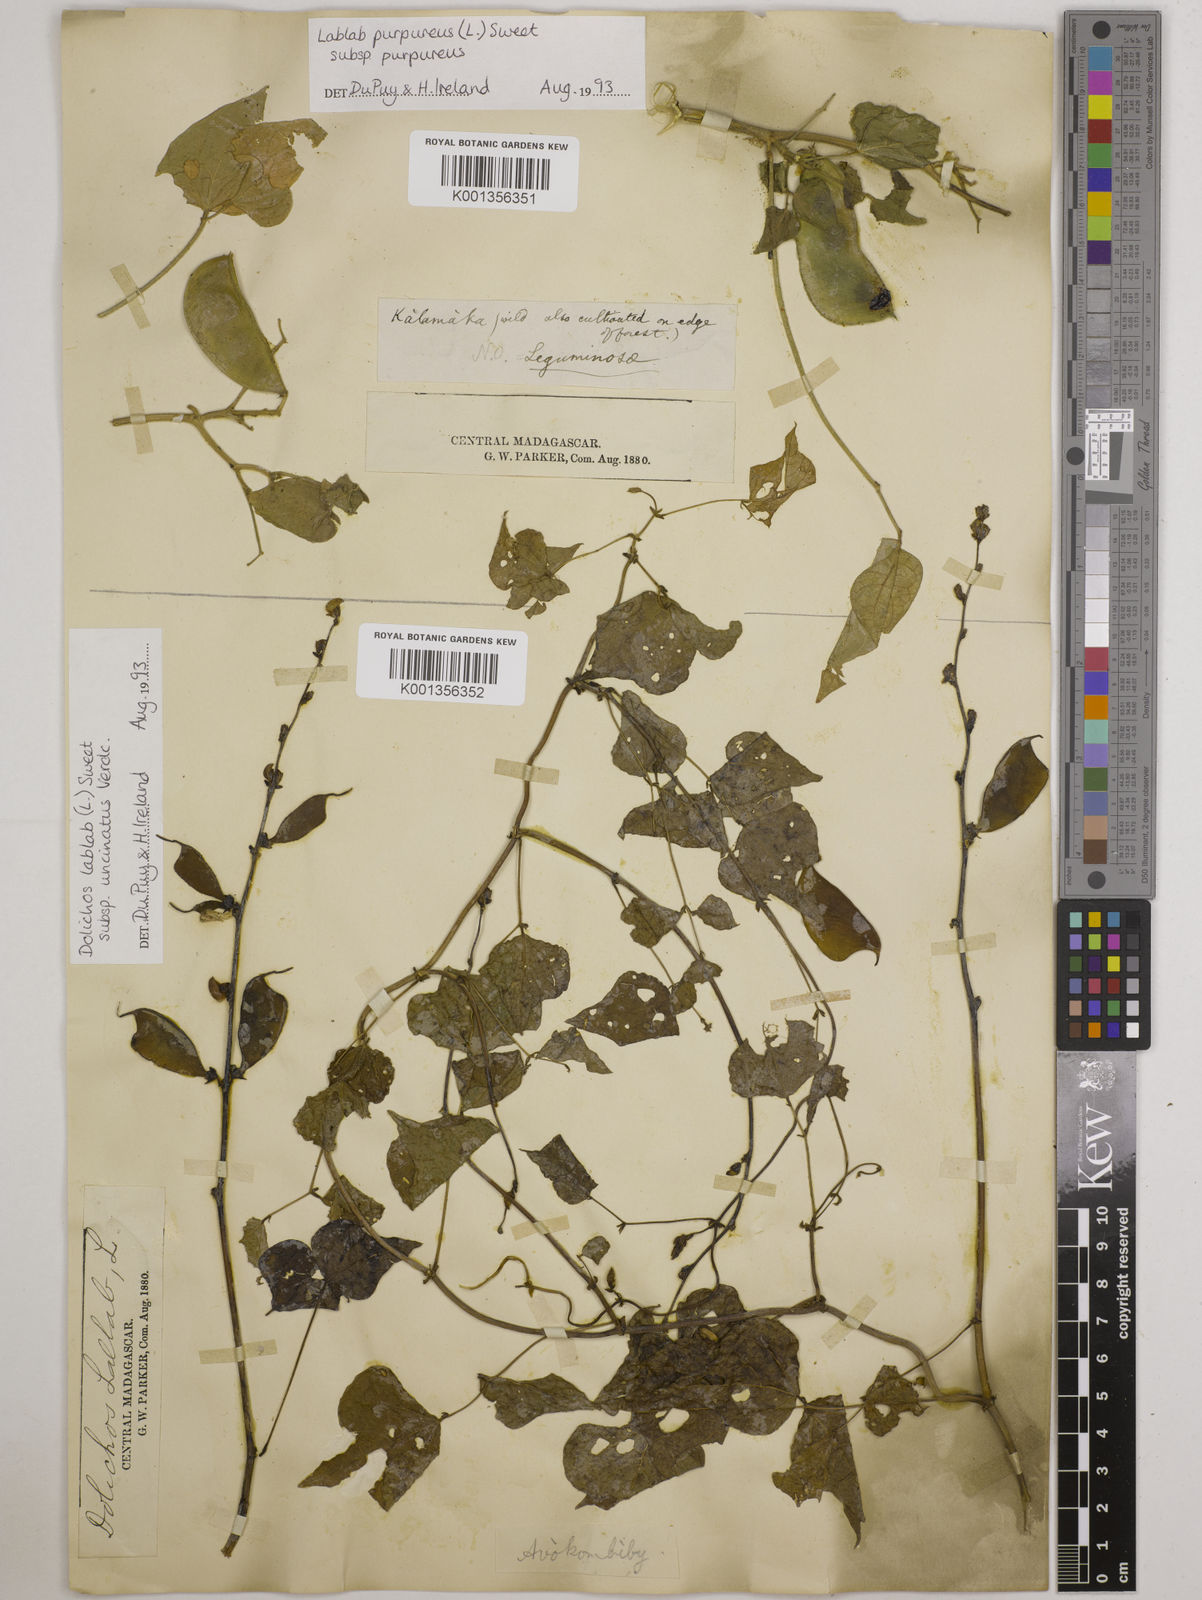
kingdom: Plantae
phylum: Tracheophyta
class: Magnoliopsida
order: Fabales
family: Fabaceae
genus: Lablab
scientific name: Lablab purpureus
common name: Lablab-bean
